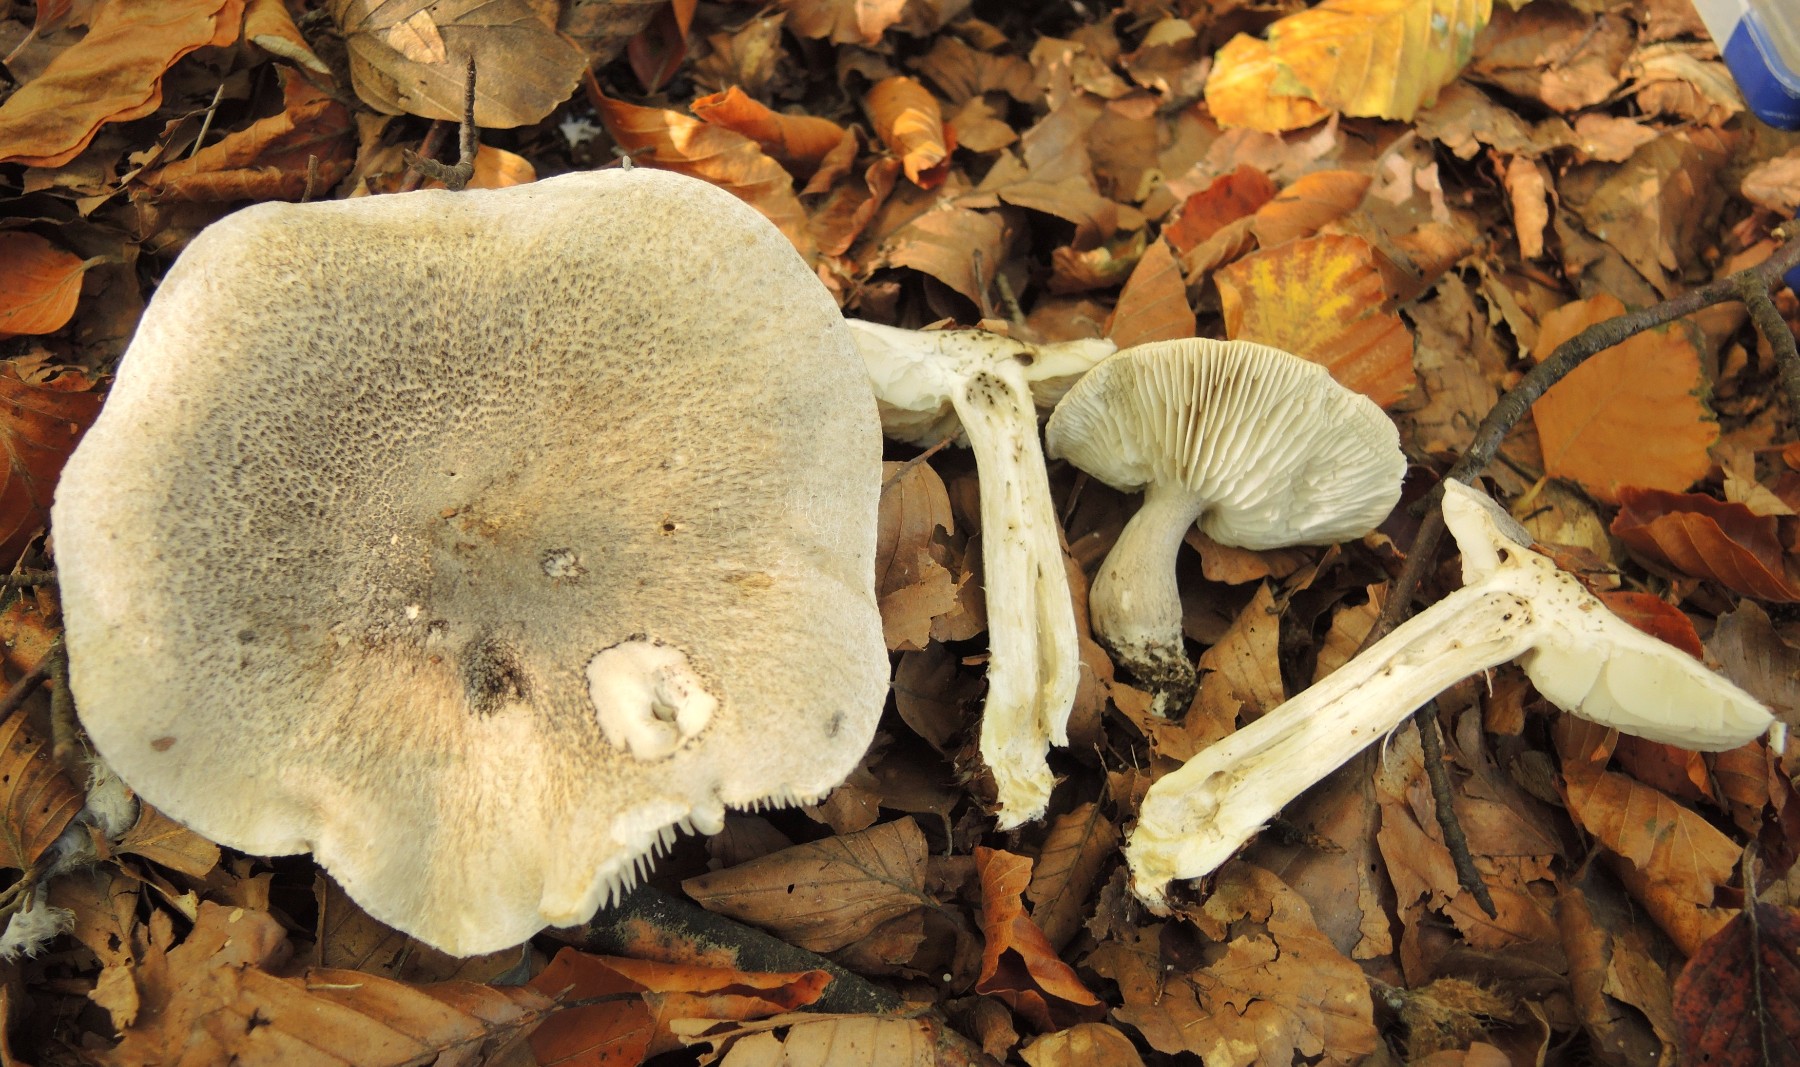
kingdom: Fungi
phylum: Basidiomycota
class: Agaricomycetes
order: Agaricales
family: Tricholomataceae
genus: Tricholoma
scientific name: Tricholoma atrosquamosum
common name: sortskællet ridderhat
